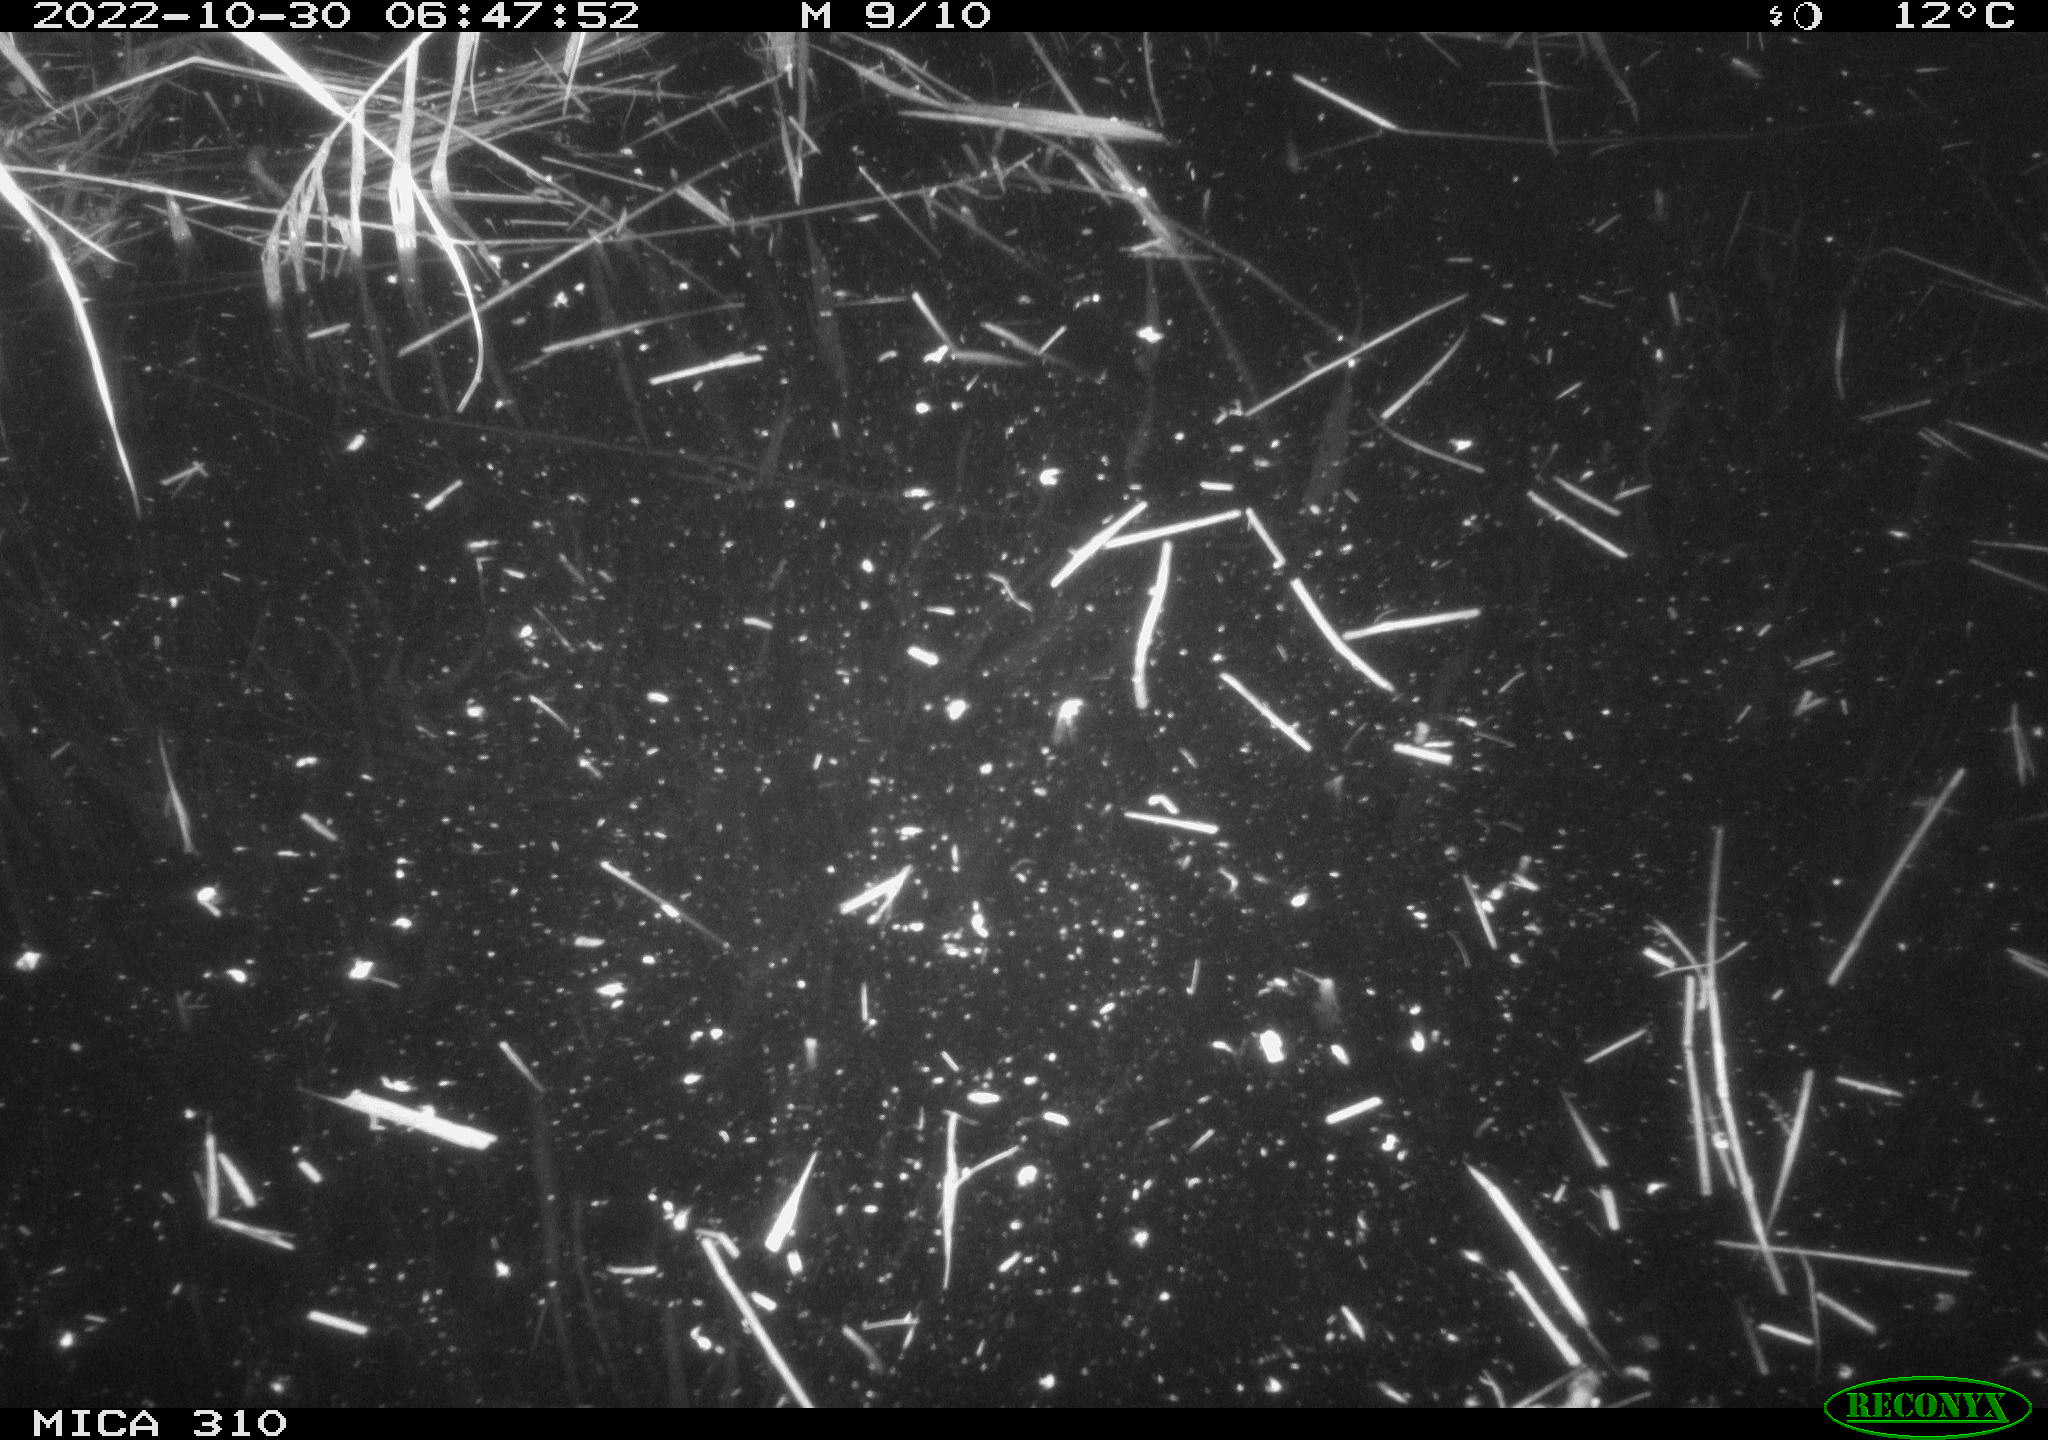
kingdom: Animalia
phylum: Chordata
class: Mammalia
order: Rodentia
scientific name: Rodentia
